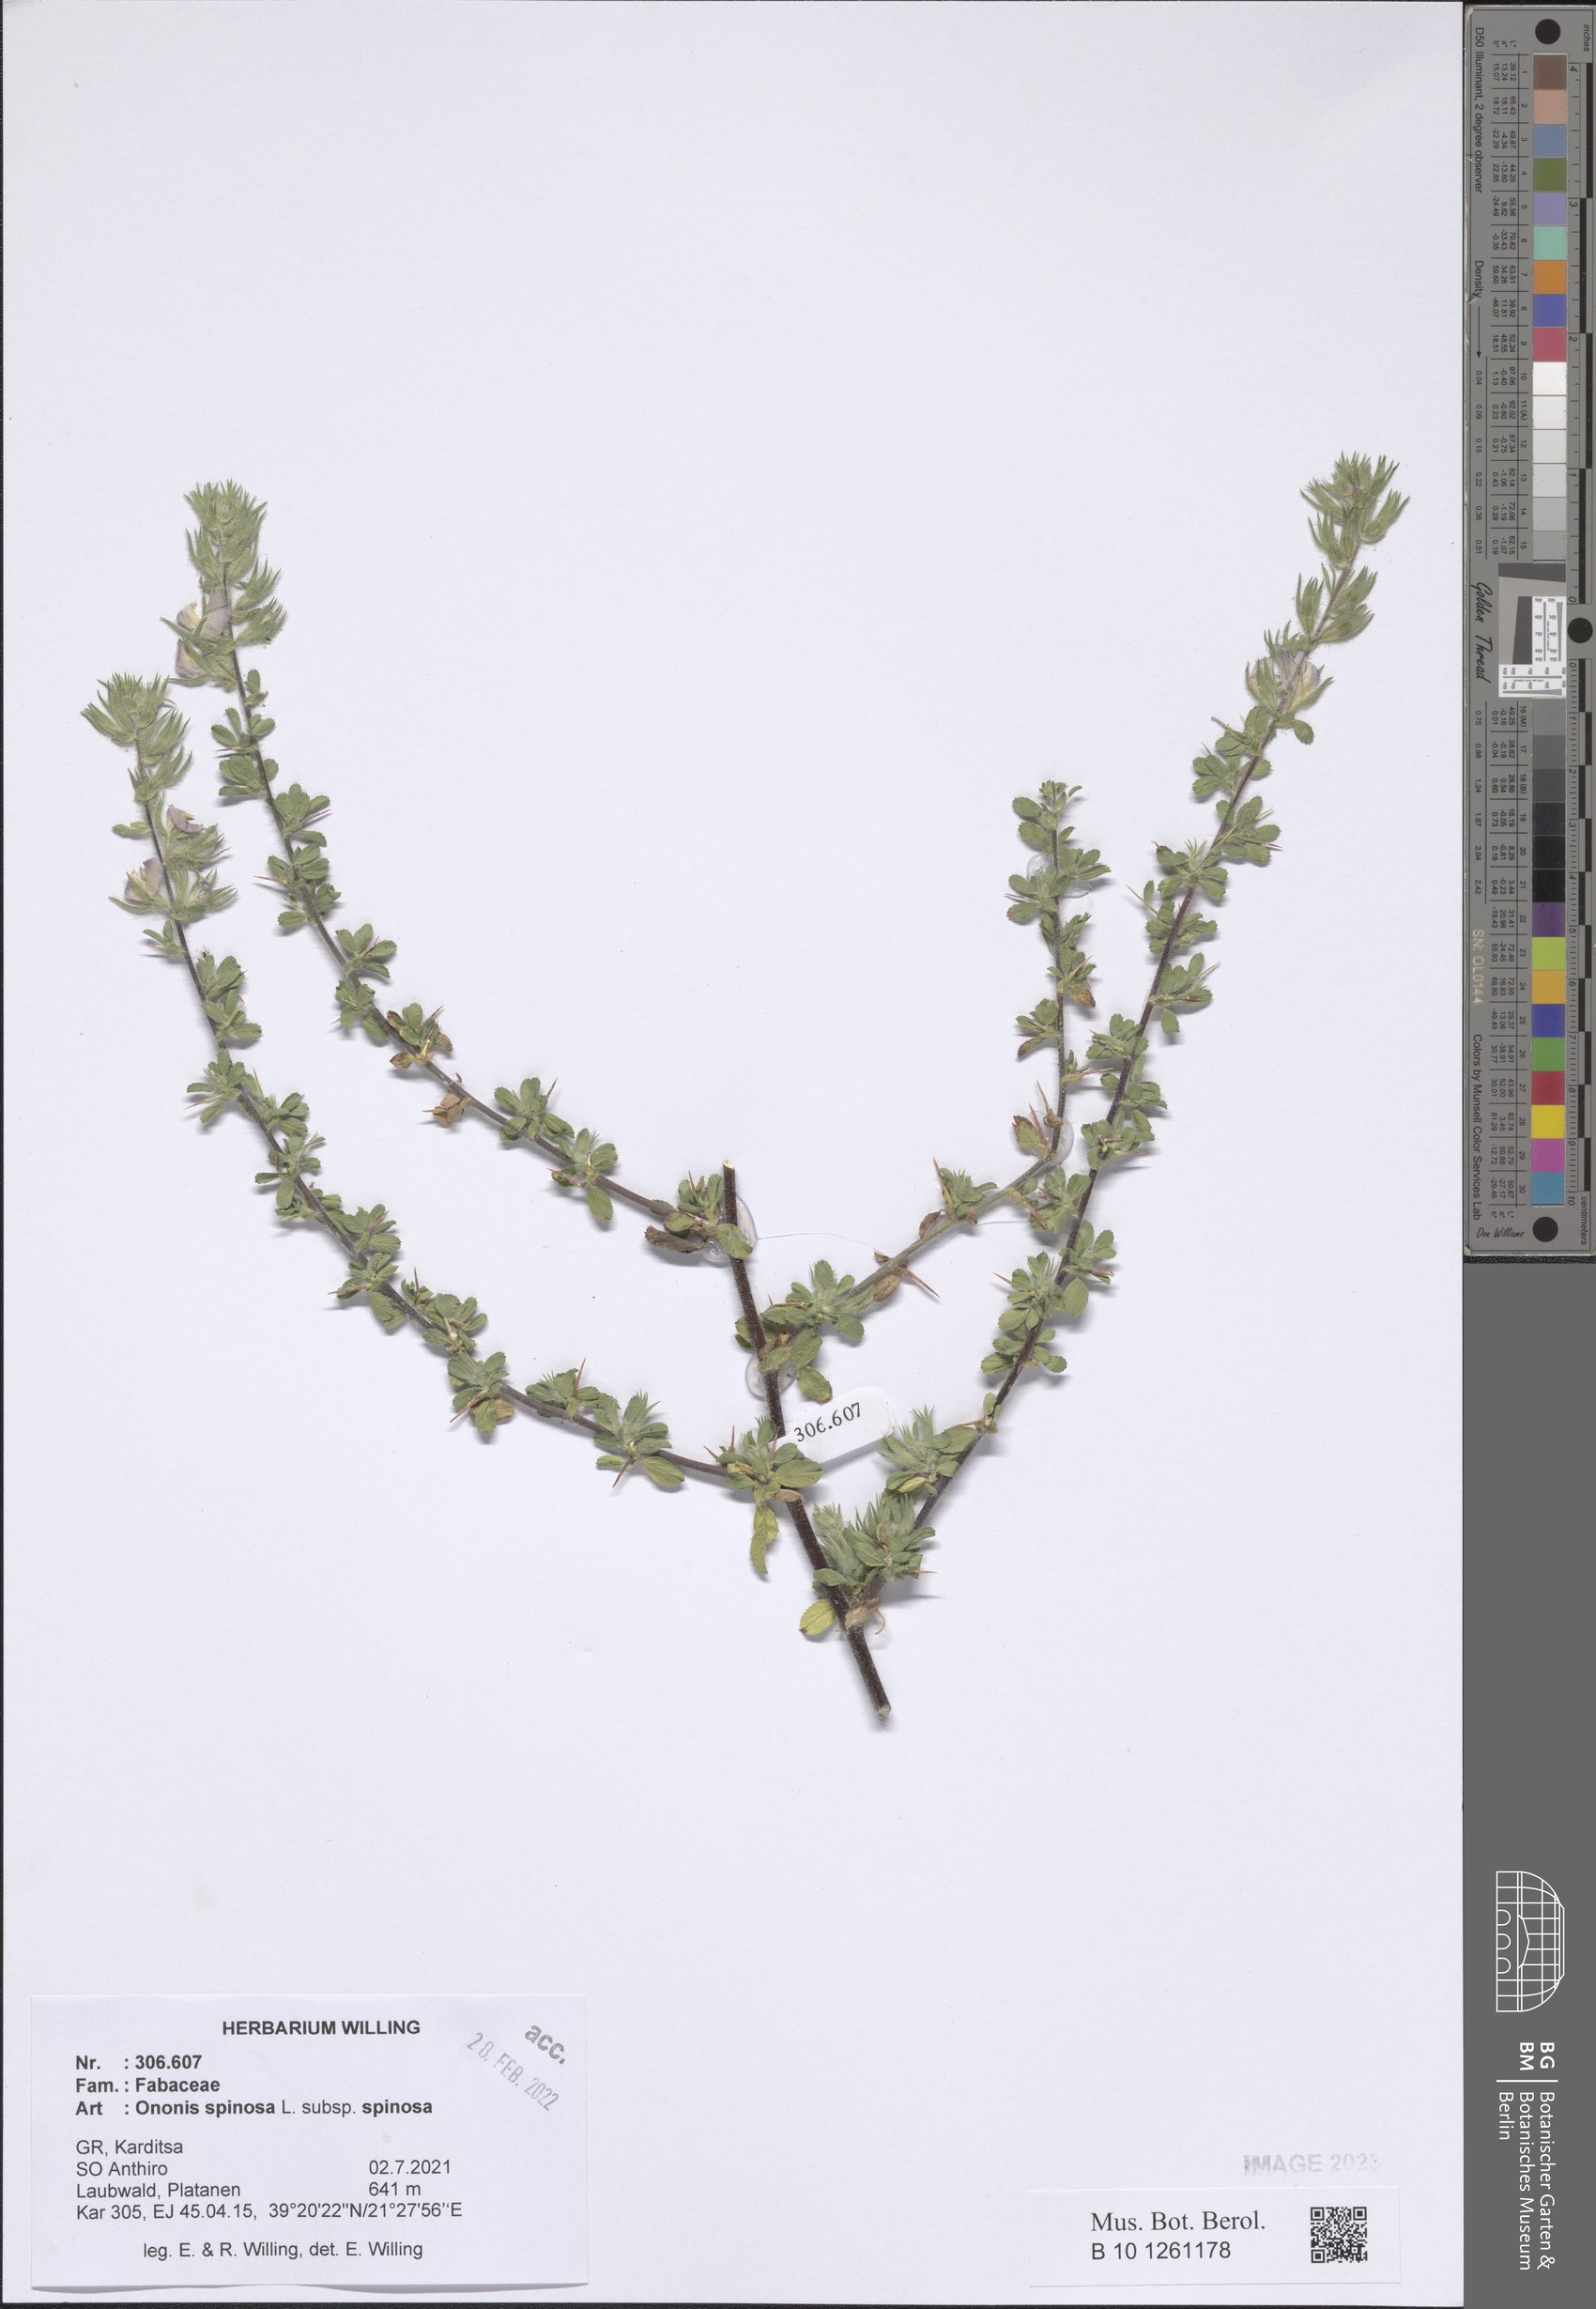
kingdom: Plantae
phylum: Tracheophyta
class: Magnoliopsida
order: Fabales
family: Fabaceae
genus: Ononis
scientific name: Ononis spinosa
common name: Spiny restharrow
